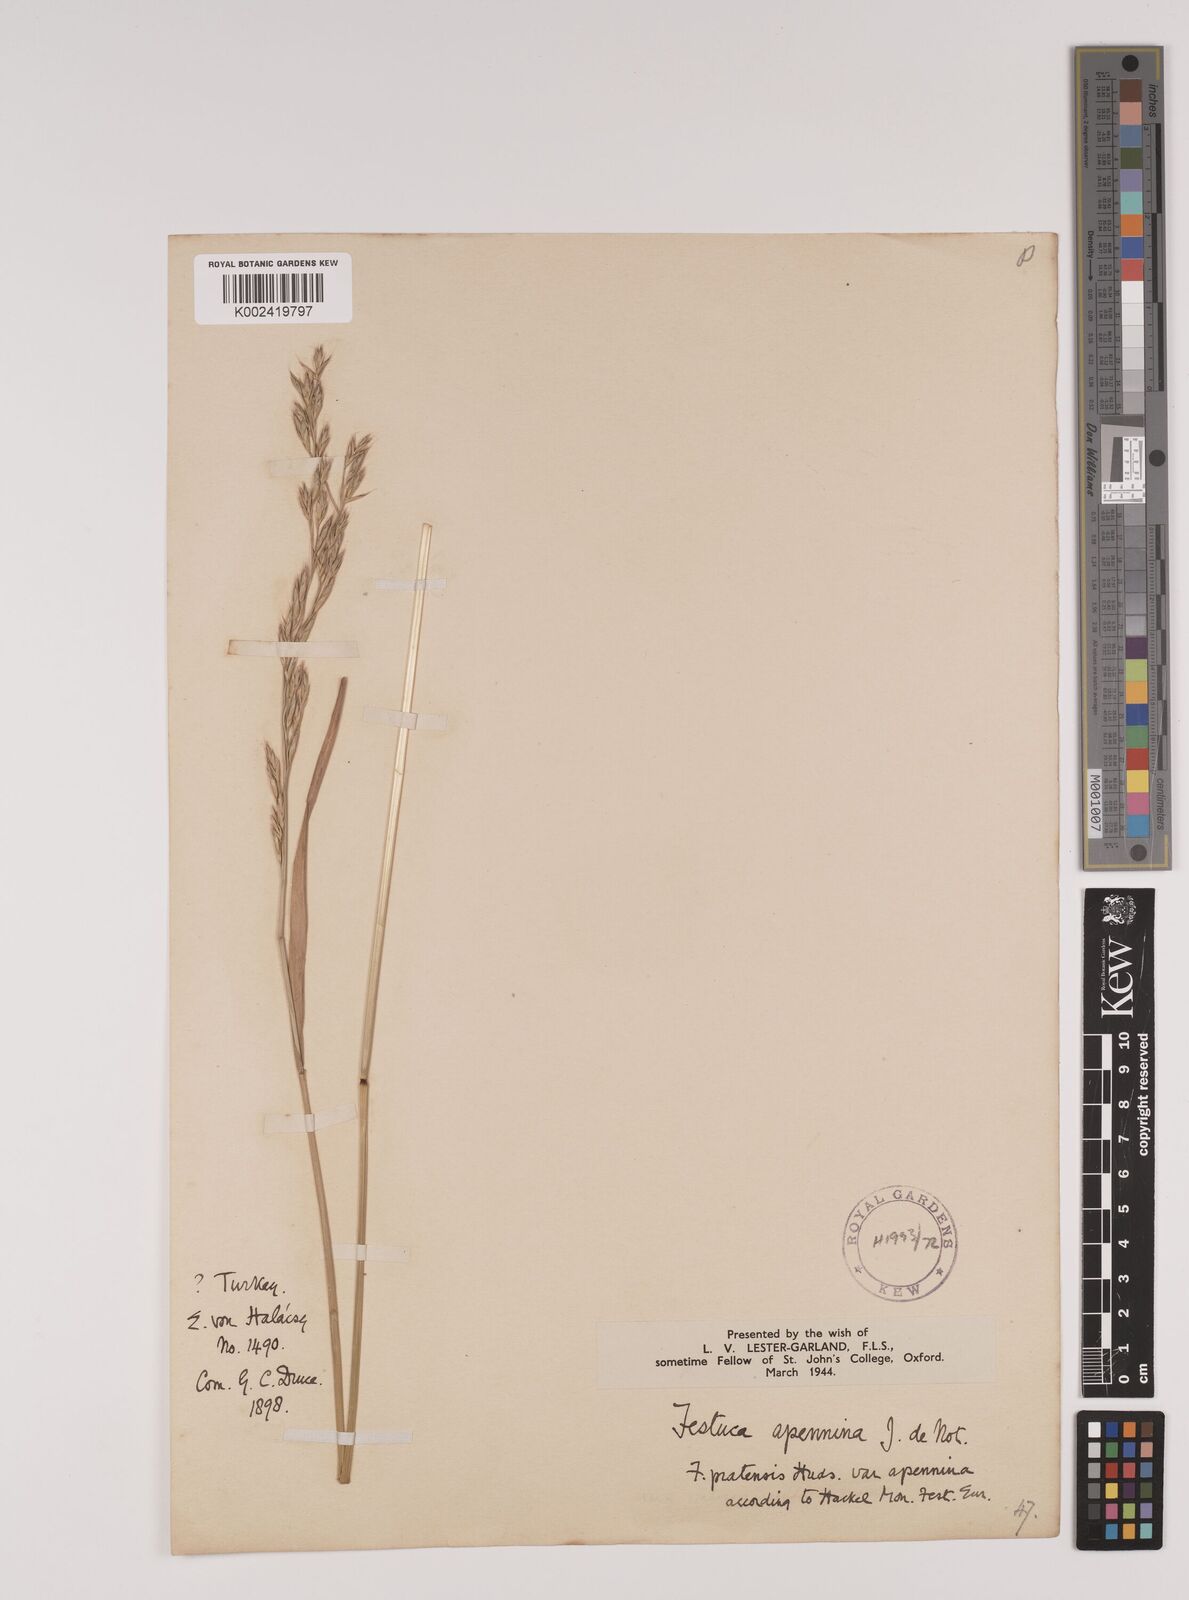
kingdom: Plantae
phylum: Tracheophyta
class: Liliopsida
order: Poales
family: Poaceae
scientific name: Poaceae
